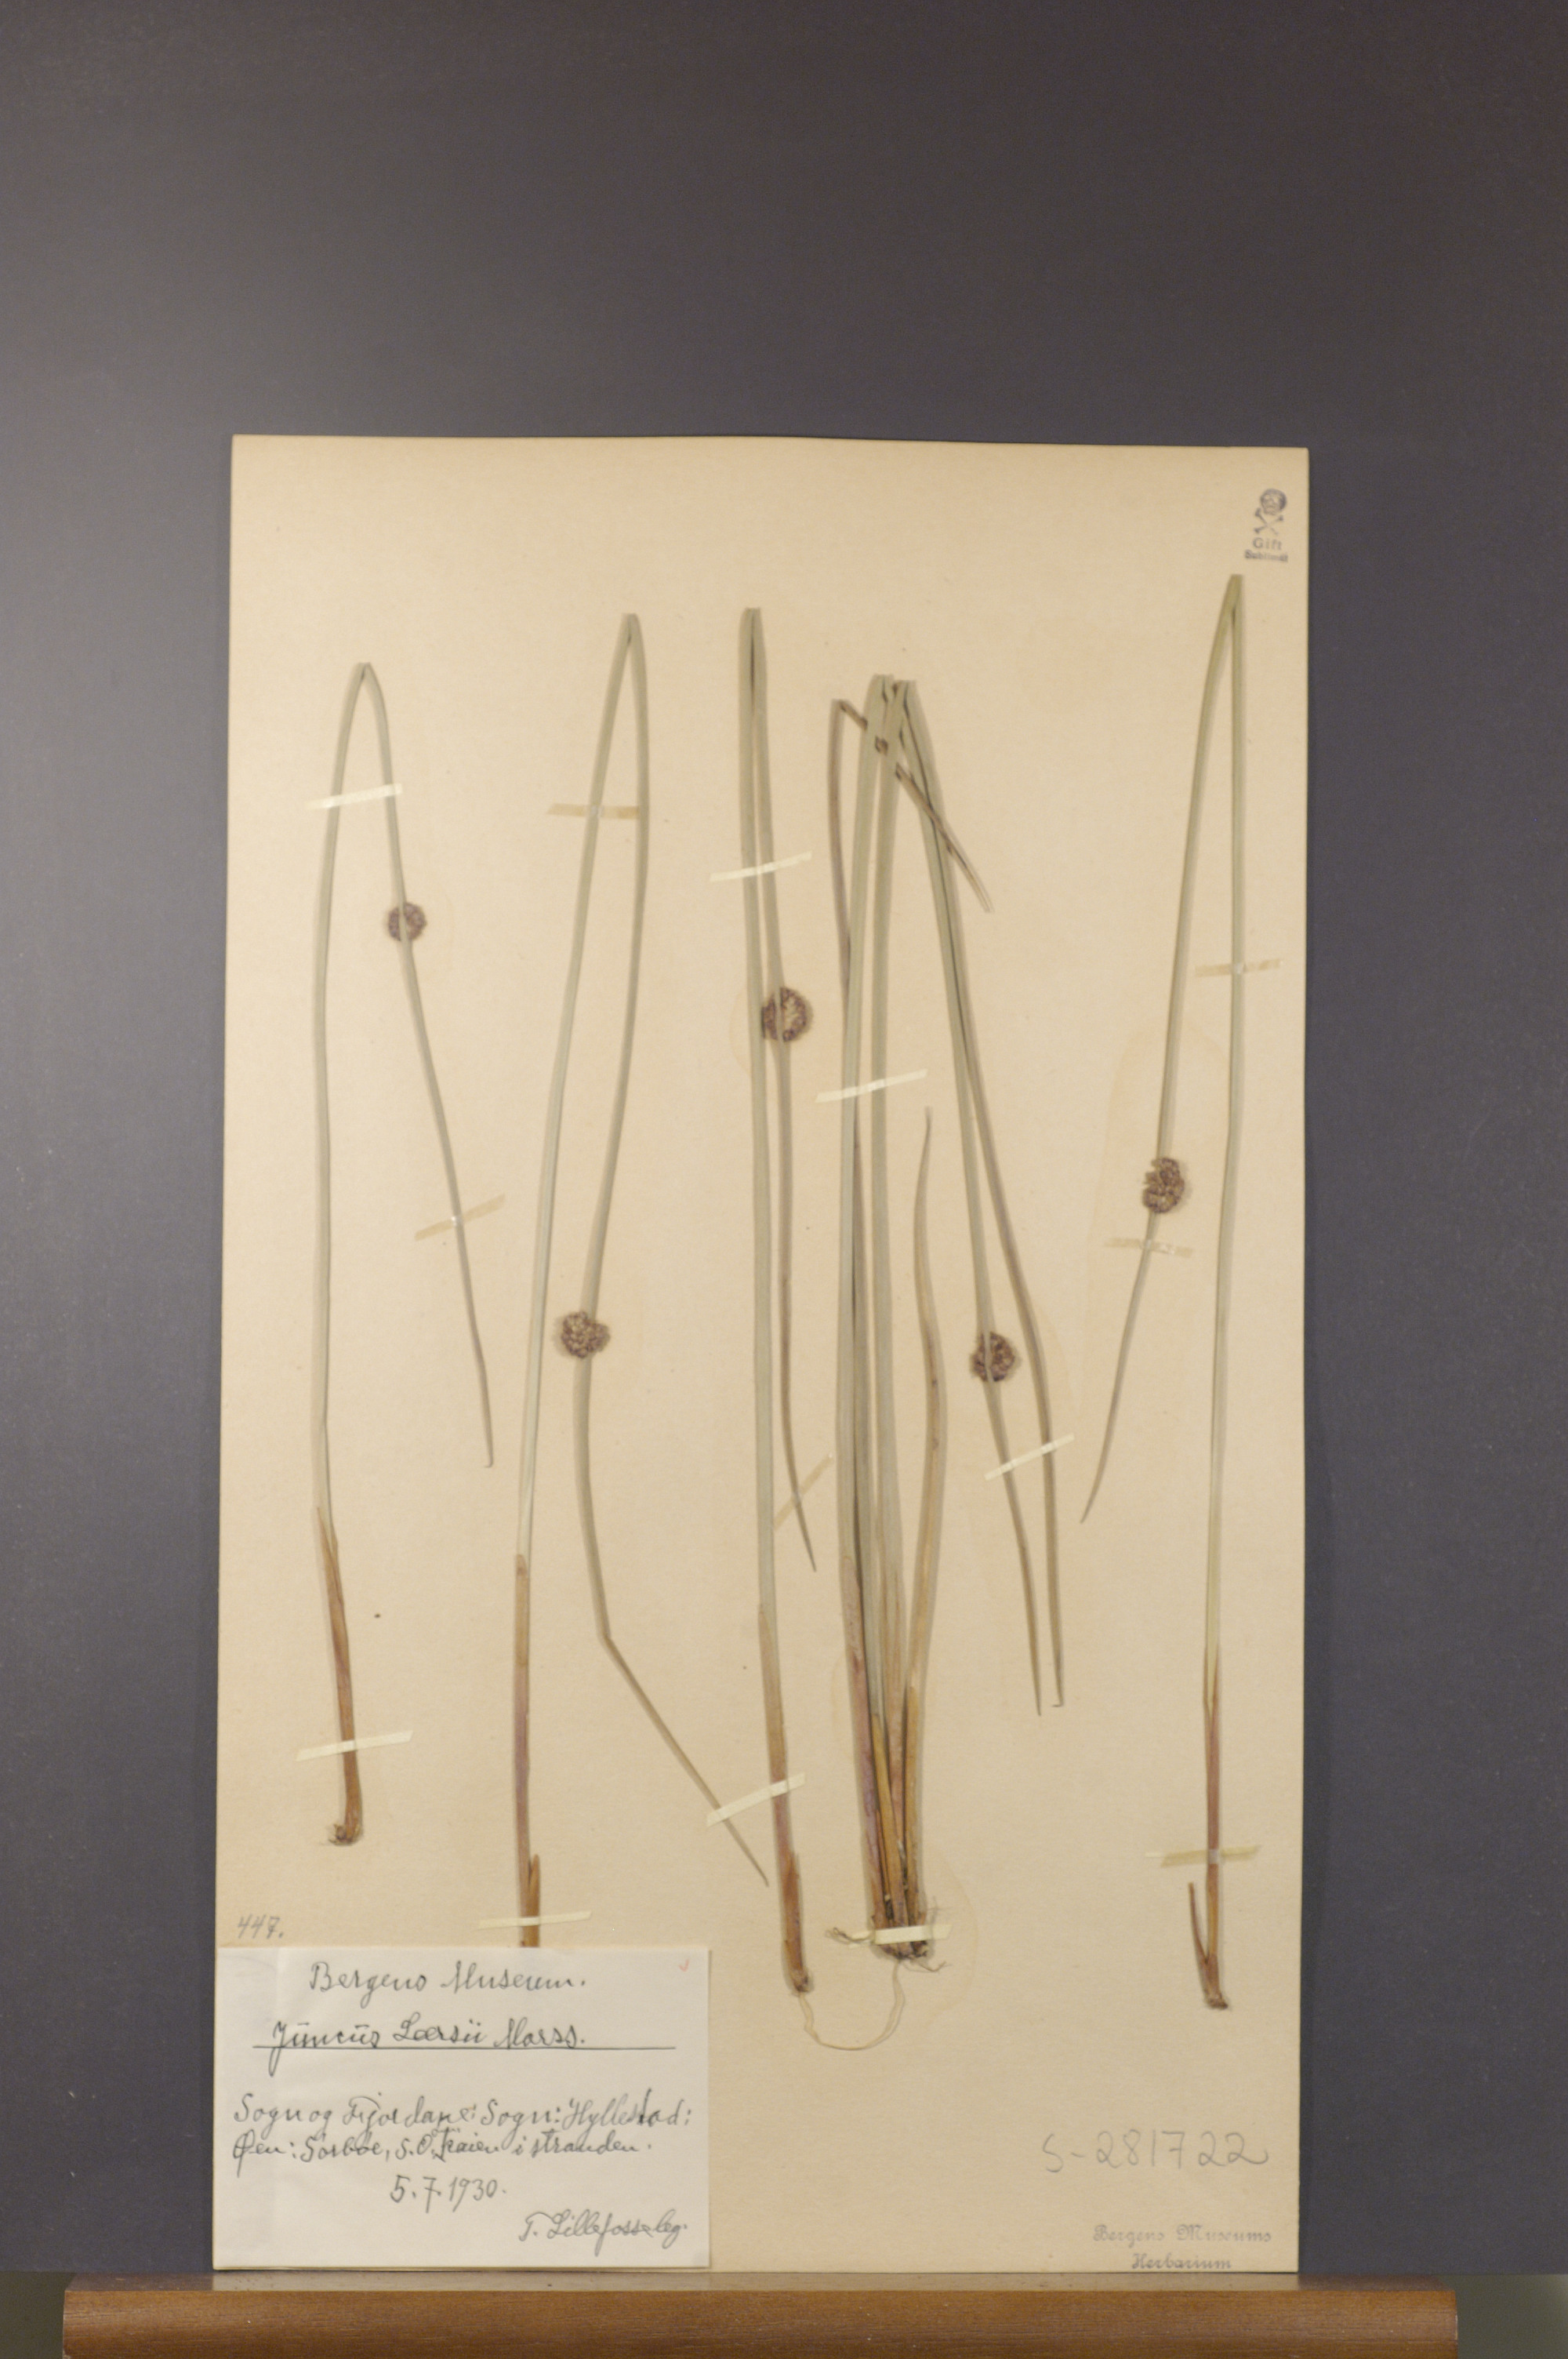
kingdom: Plantae
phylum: Tracheophyta
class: Liliopsida
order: Poales
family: Juncaceae
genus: Juncus
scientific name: Juncus conglomeratus
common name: Compact rush
